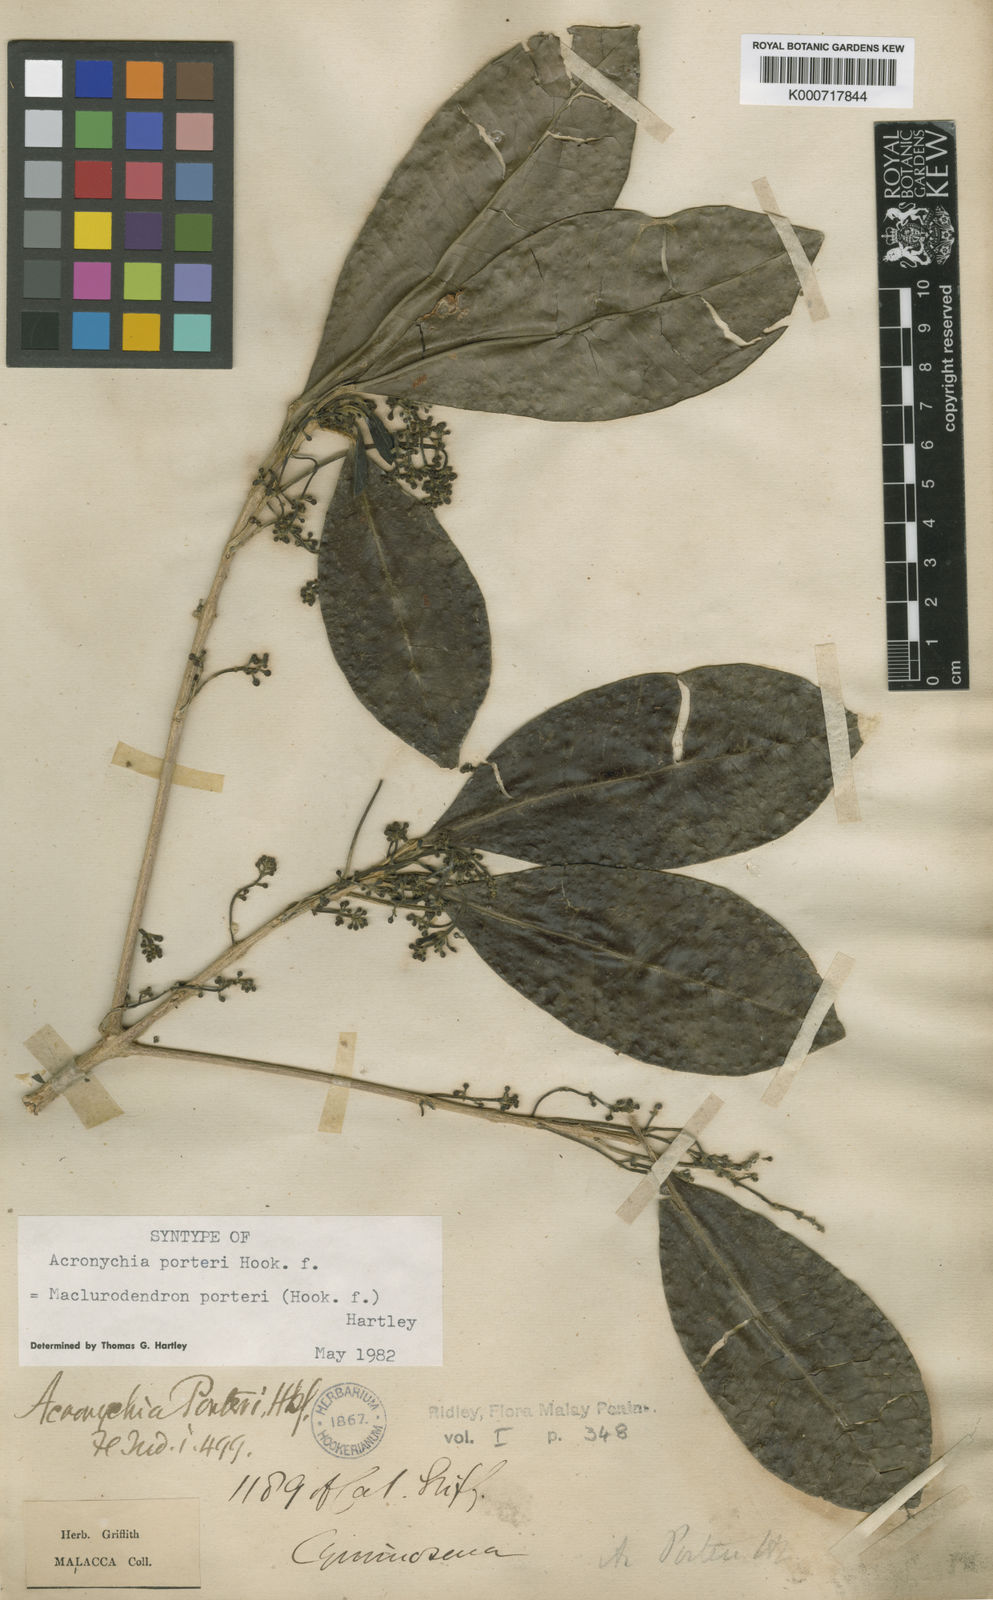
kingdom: Plantae
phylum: Tracheophyta
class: Magnoliopsida
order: Sapindales
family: Rutaceae
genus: Maclurodendron
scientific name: Maclurodendron porteri
